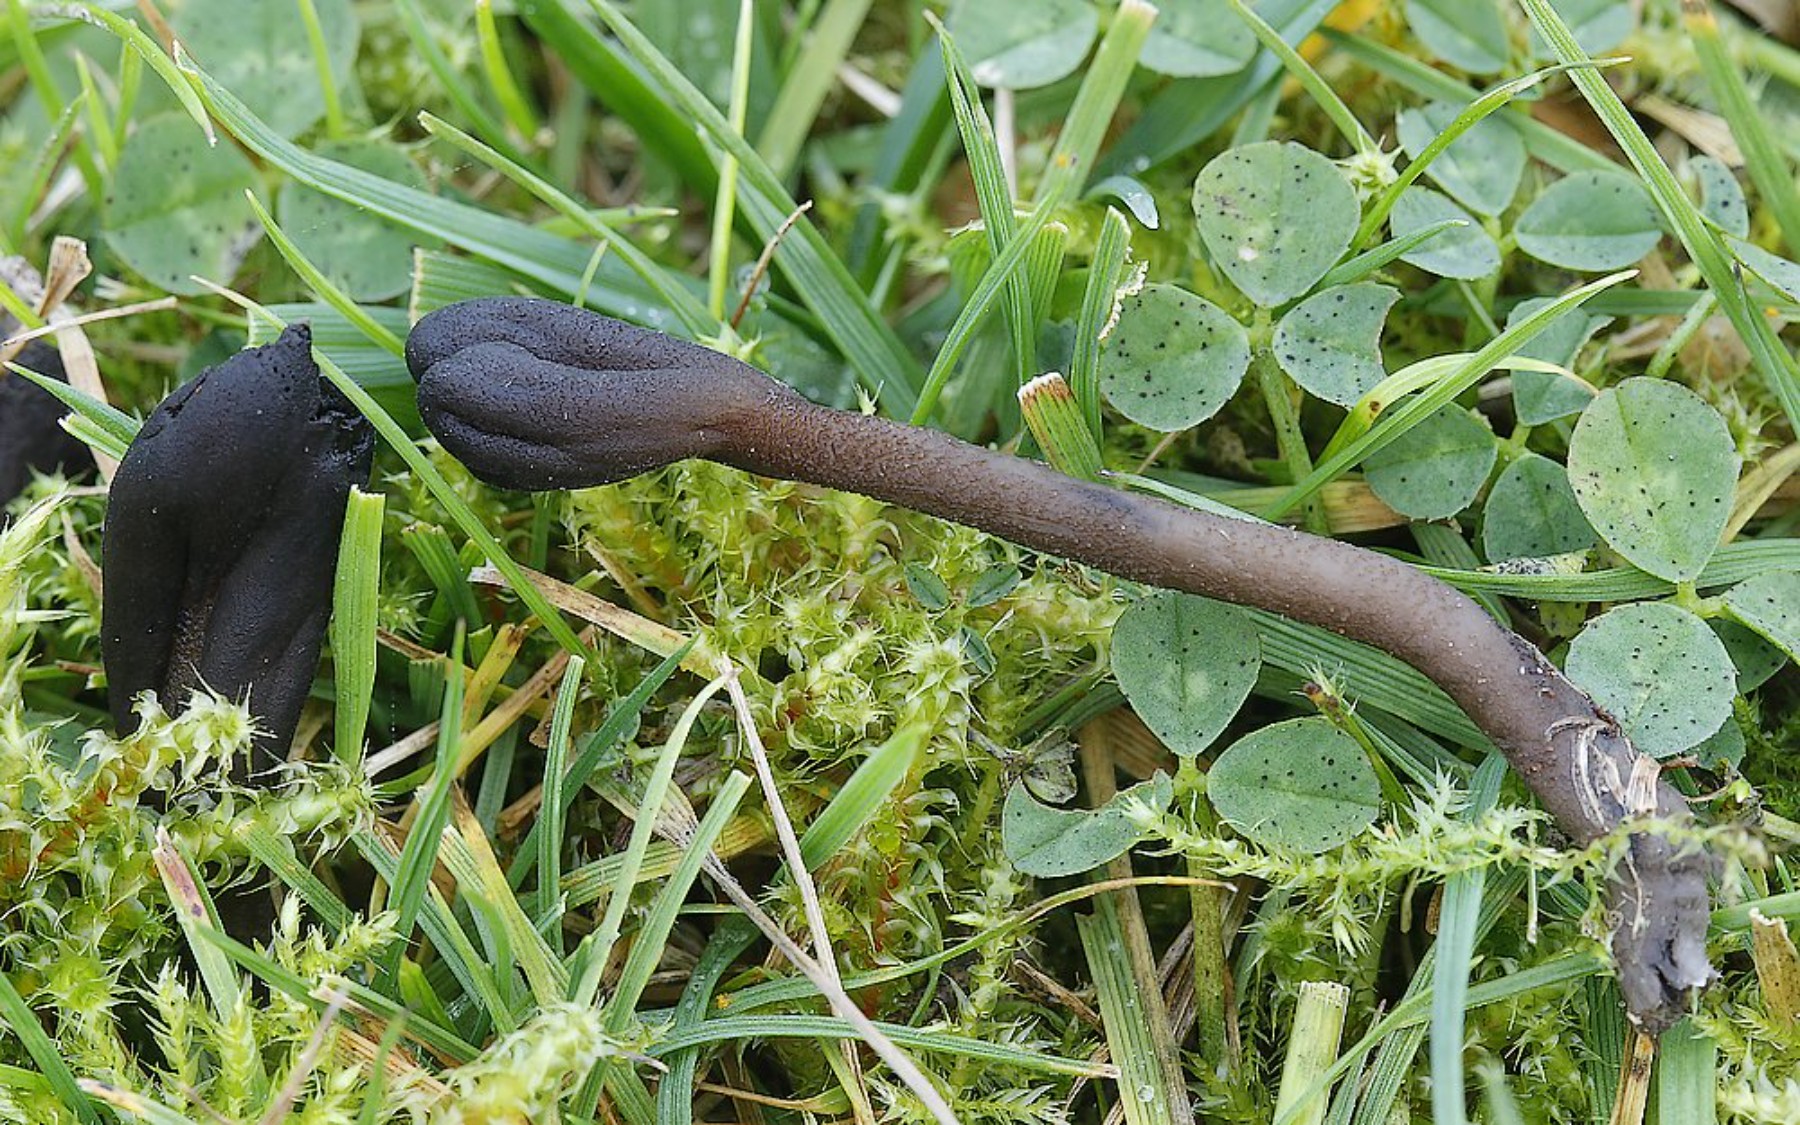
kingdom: Fungi
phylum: Ascomycota
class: Geoglossomycetes
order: Geoglossales
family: Geoglossaceae
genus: Hemileucoglossum
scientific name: Hemileucoglossum elongatum
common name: småsporet jordtunge
